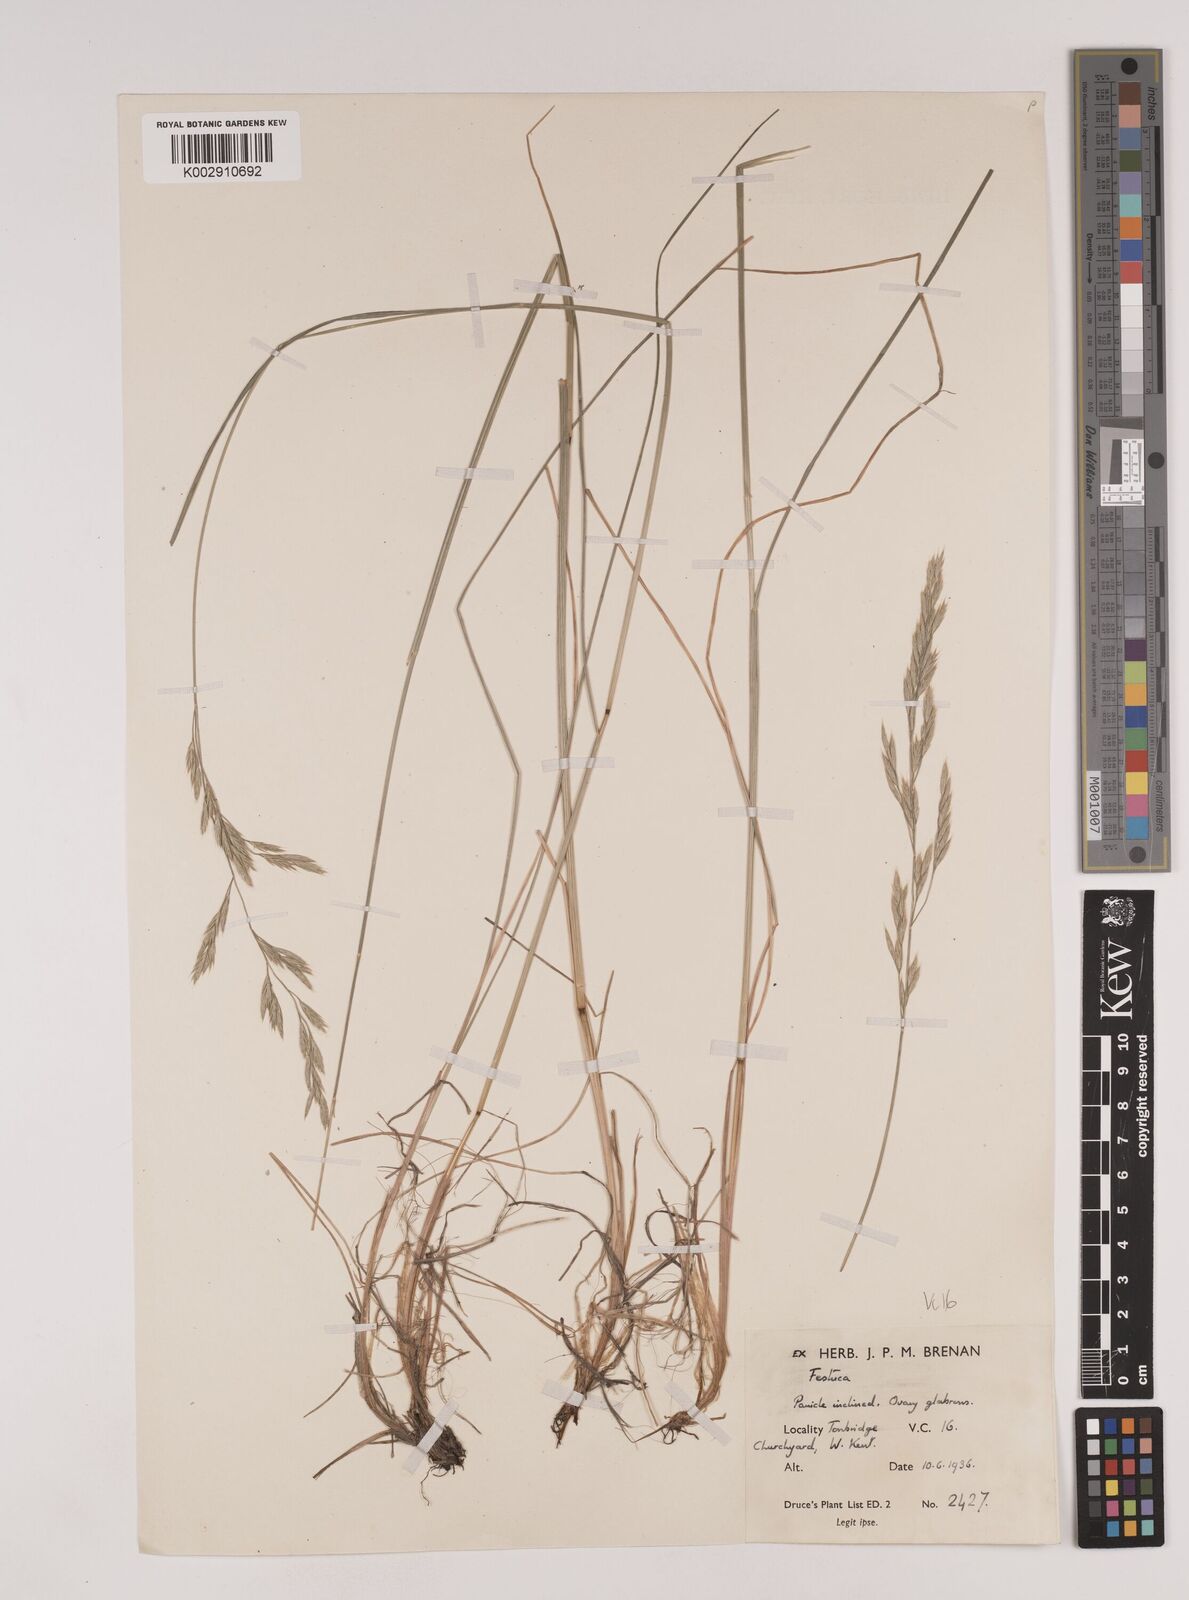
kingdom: Plantae
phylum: Tracheophyta
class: Liliopsida
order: Poales
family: Poaceae
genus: Festuca
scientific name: Festuca rubra
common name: Red fescue
